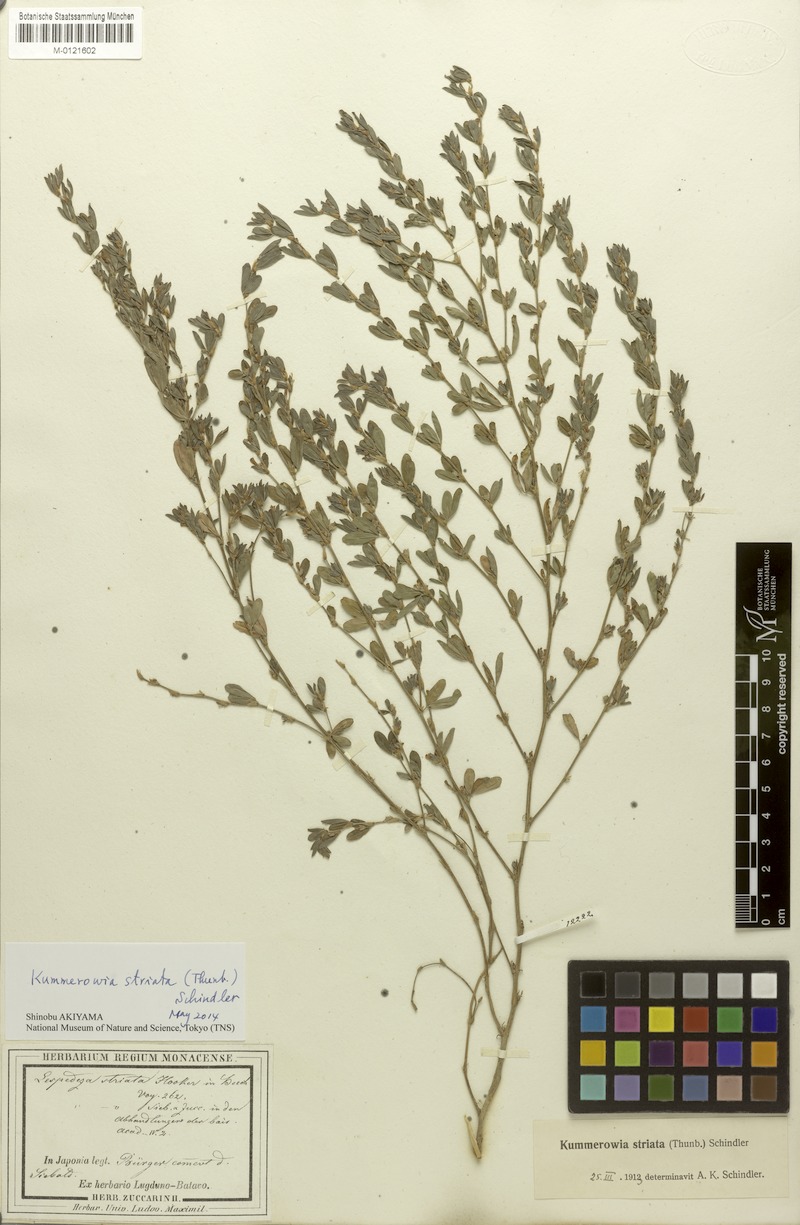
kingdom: Plantae
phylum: Tracheophyta
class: Magnoliopsida
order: Fabales
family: Fabaceae
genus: Kummerowia
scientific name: Kummerowia striata
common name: Japanese clover
